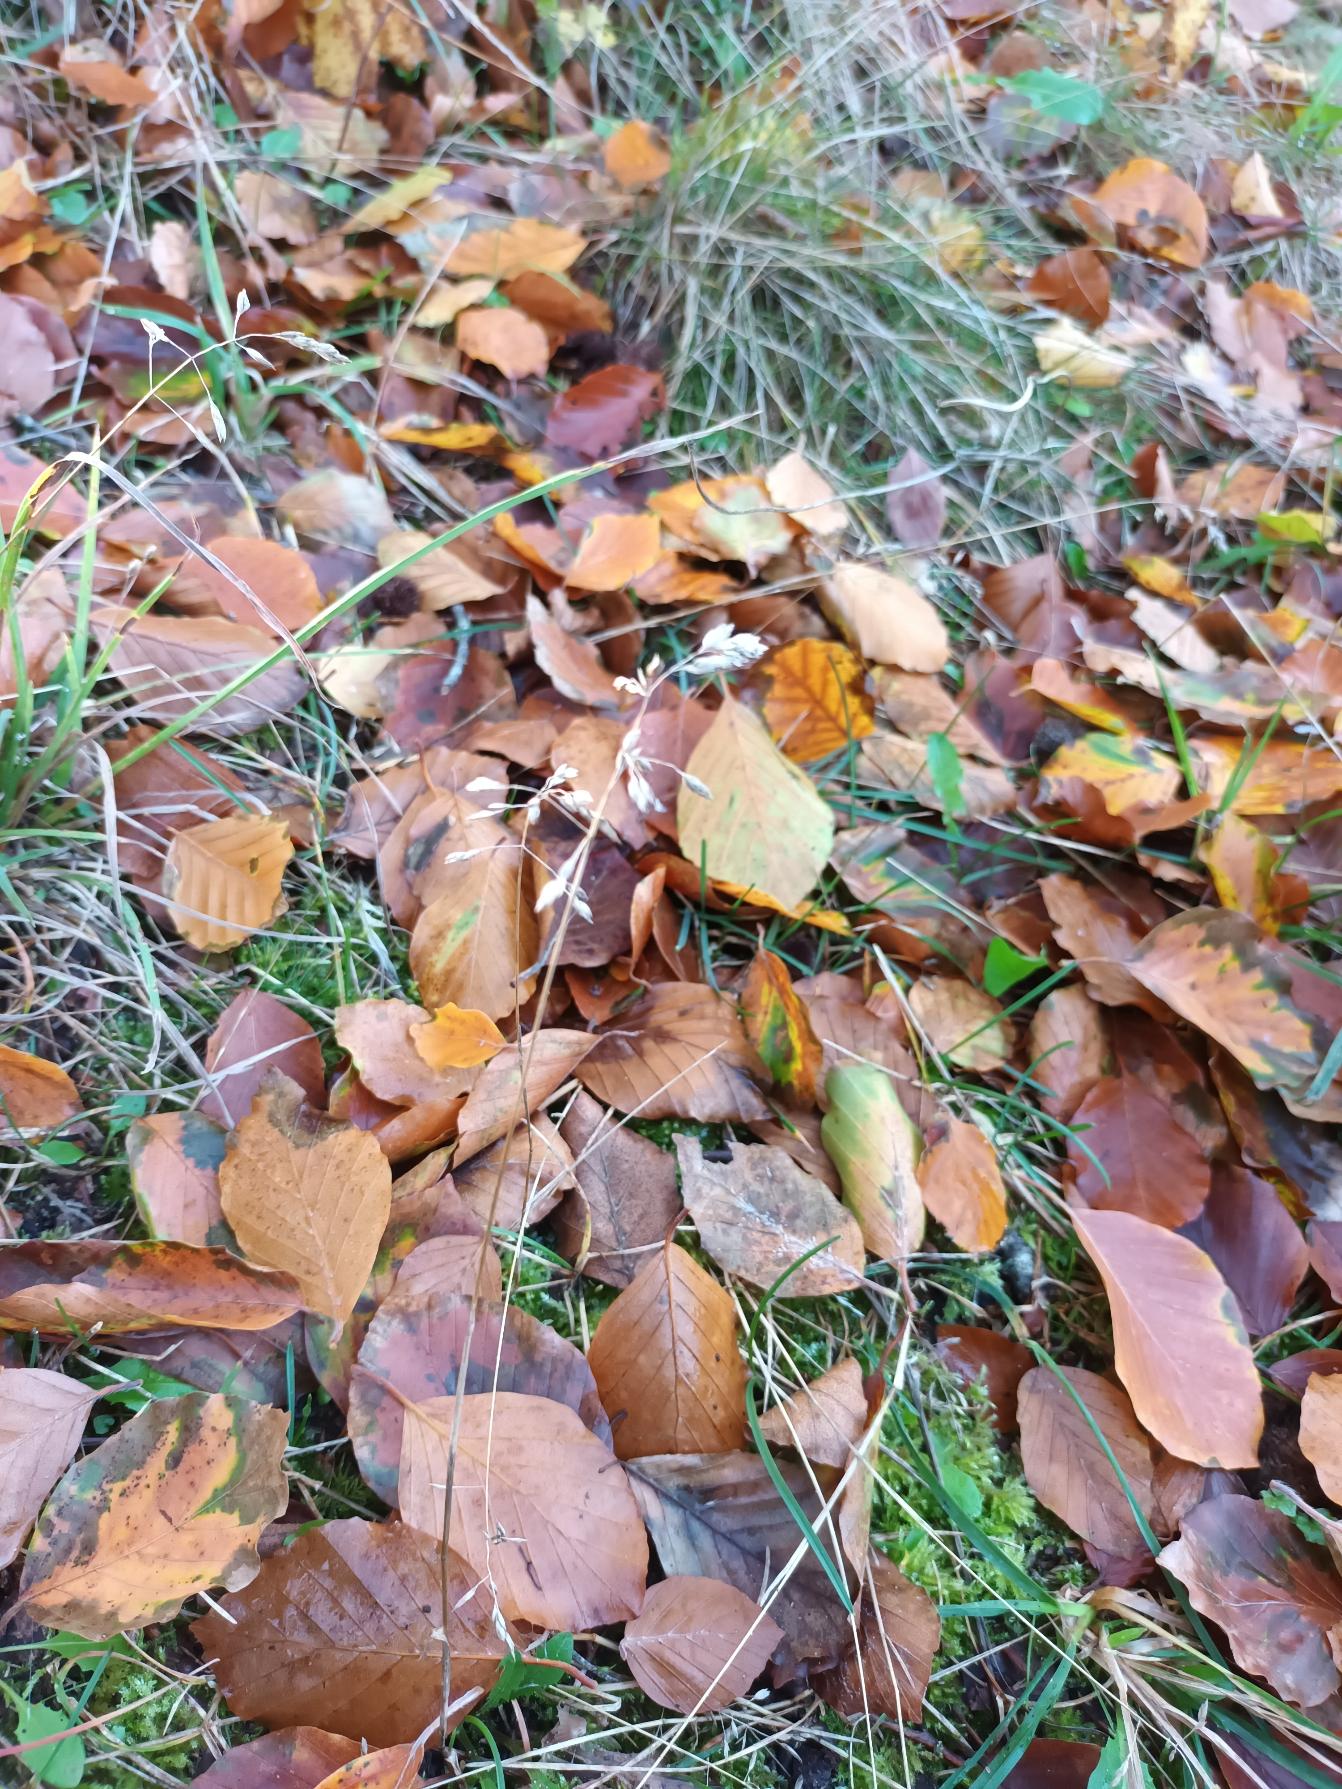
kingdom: Plantae
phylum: Tracheophyta
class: Liliopsida
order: Poales
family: Poaceae
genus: Poa
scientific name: Poa pratensis
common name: Eng-rapgræs
